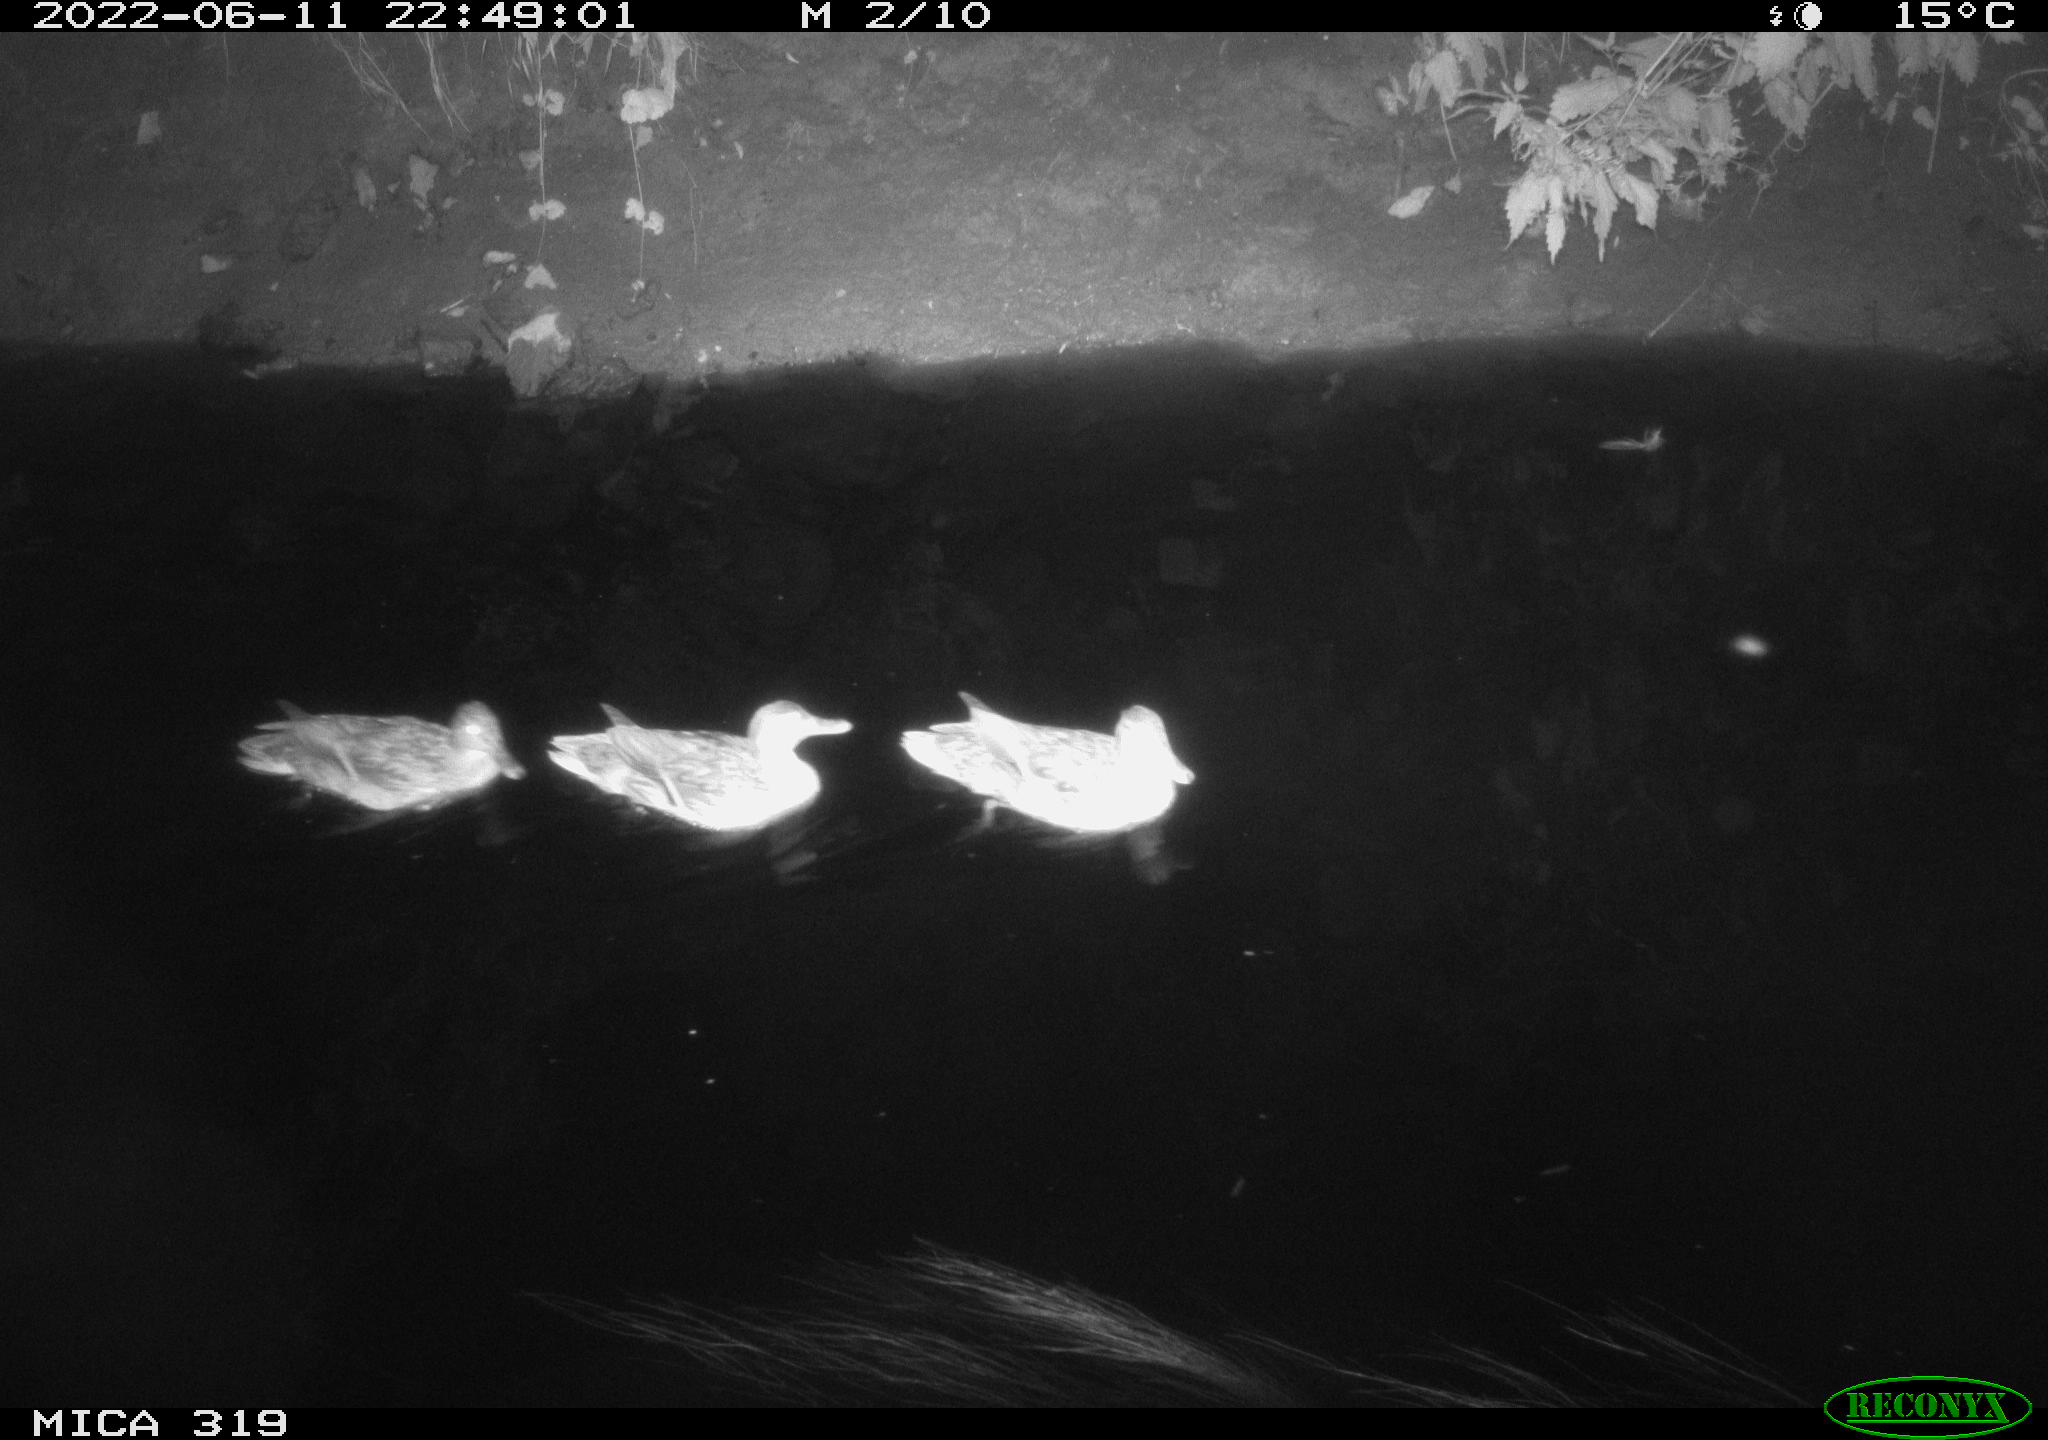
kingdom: Animalia
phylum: Chordata
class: Aves
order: Anseriformes
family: Anatidae
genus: Anas
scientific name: Anas
